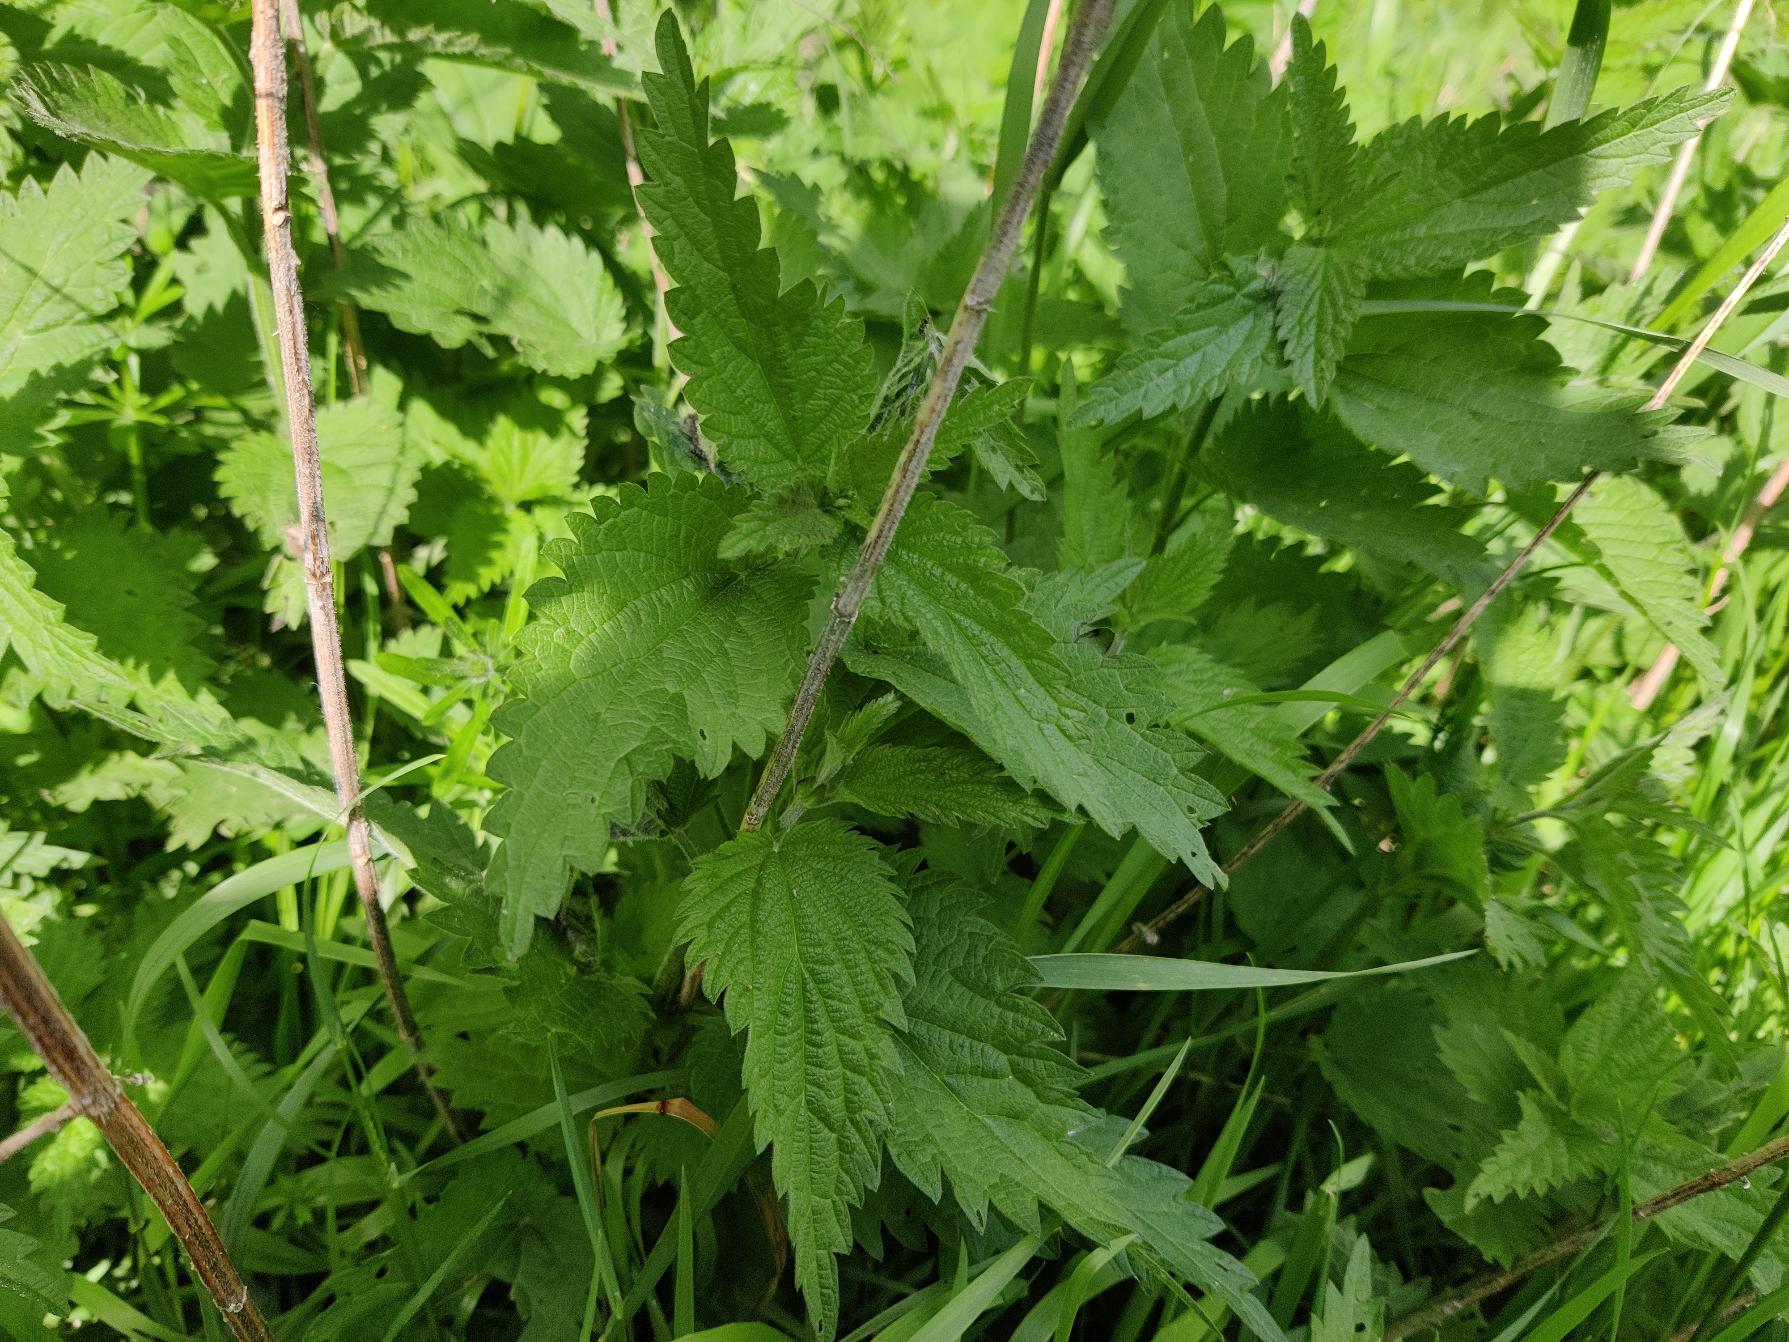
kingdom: Plantae
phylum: Tracheophyta
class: Magnoliopsida
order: Rosales
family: Urticaceae
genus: Urtica
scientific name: Urtica dioica
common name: Stor nælde
